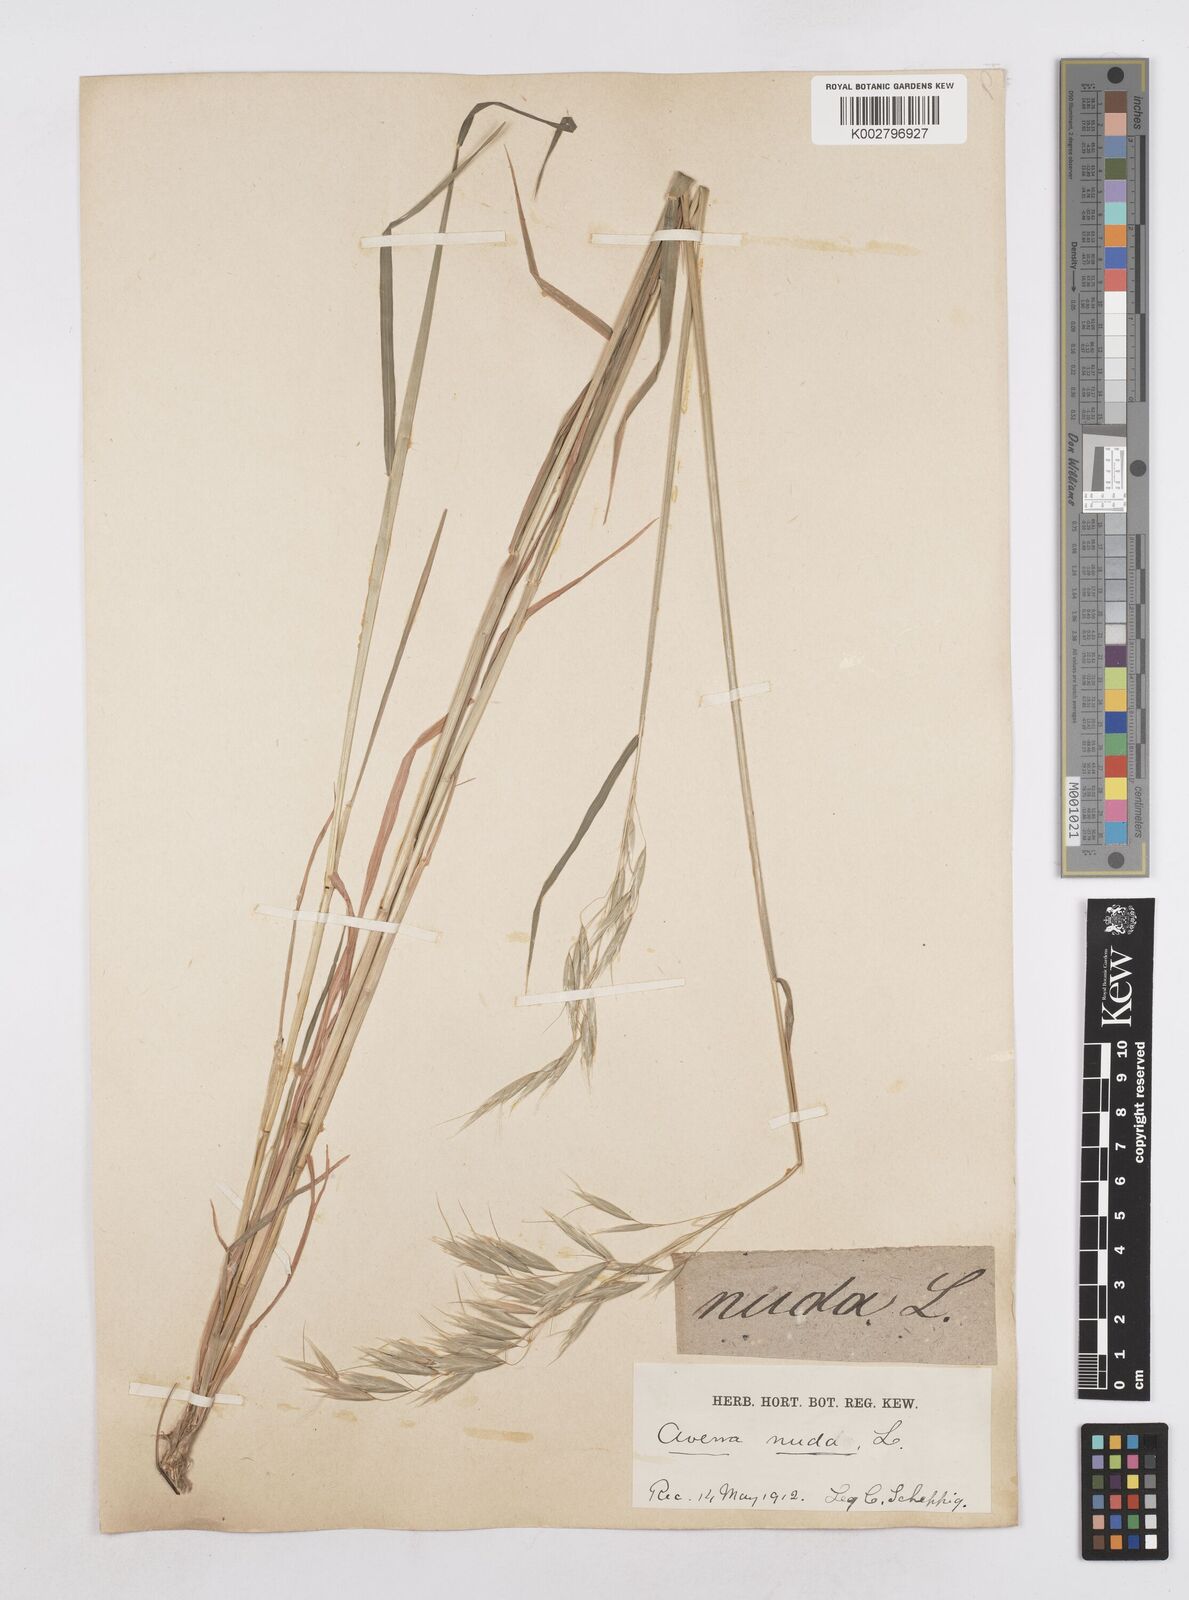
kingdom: Plantae
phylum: Tracheophyta
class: Liliopsida
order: Poales
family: Poaceae
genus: Avena
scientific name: Avena nuda
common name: Naked oat
